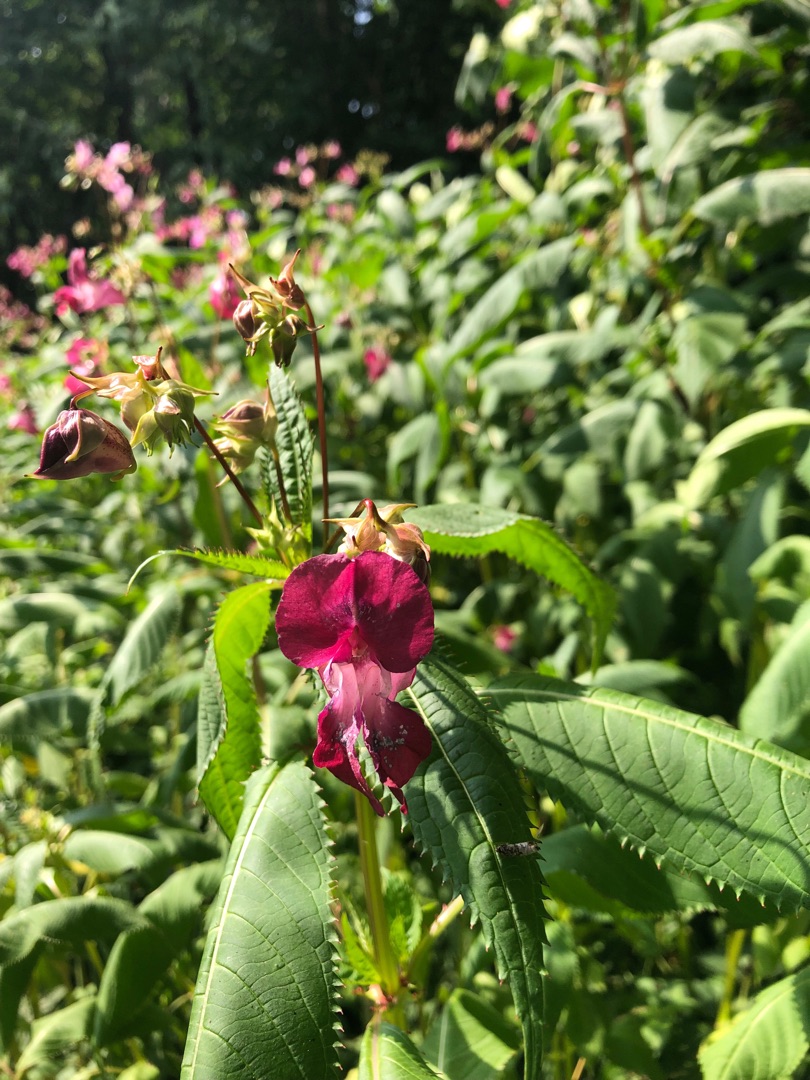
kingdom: Plantae
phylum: Tracheophyta
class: Magnoliopsida
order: Ericales
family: Balsaminaceae
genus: Impatiens
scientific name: Impatiens glandulifera
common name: Kæmpe-balsamin
